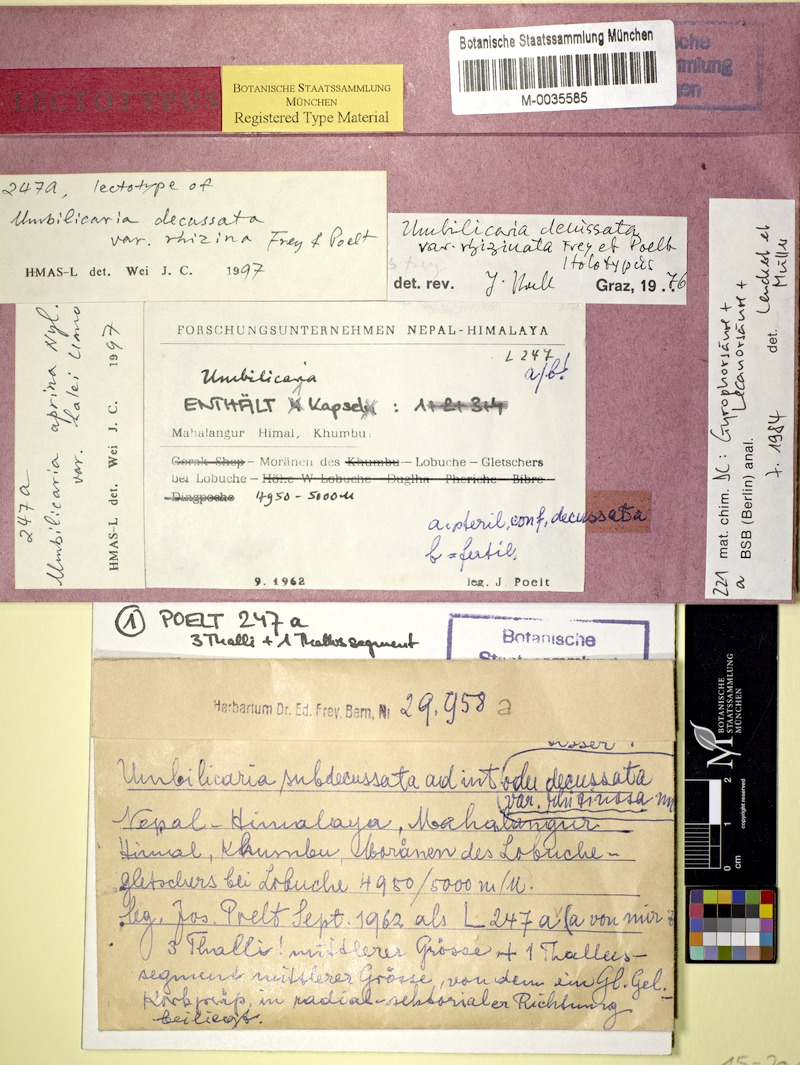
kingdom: Fungi
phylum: Ascomycota
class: Lecanoromycetes
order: Umbilicariales
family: Umbilicariaceae
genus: Umbilicaria
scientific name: Umbilicaria rhizinata
